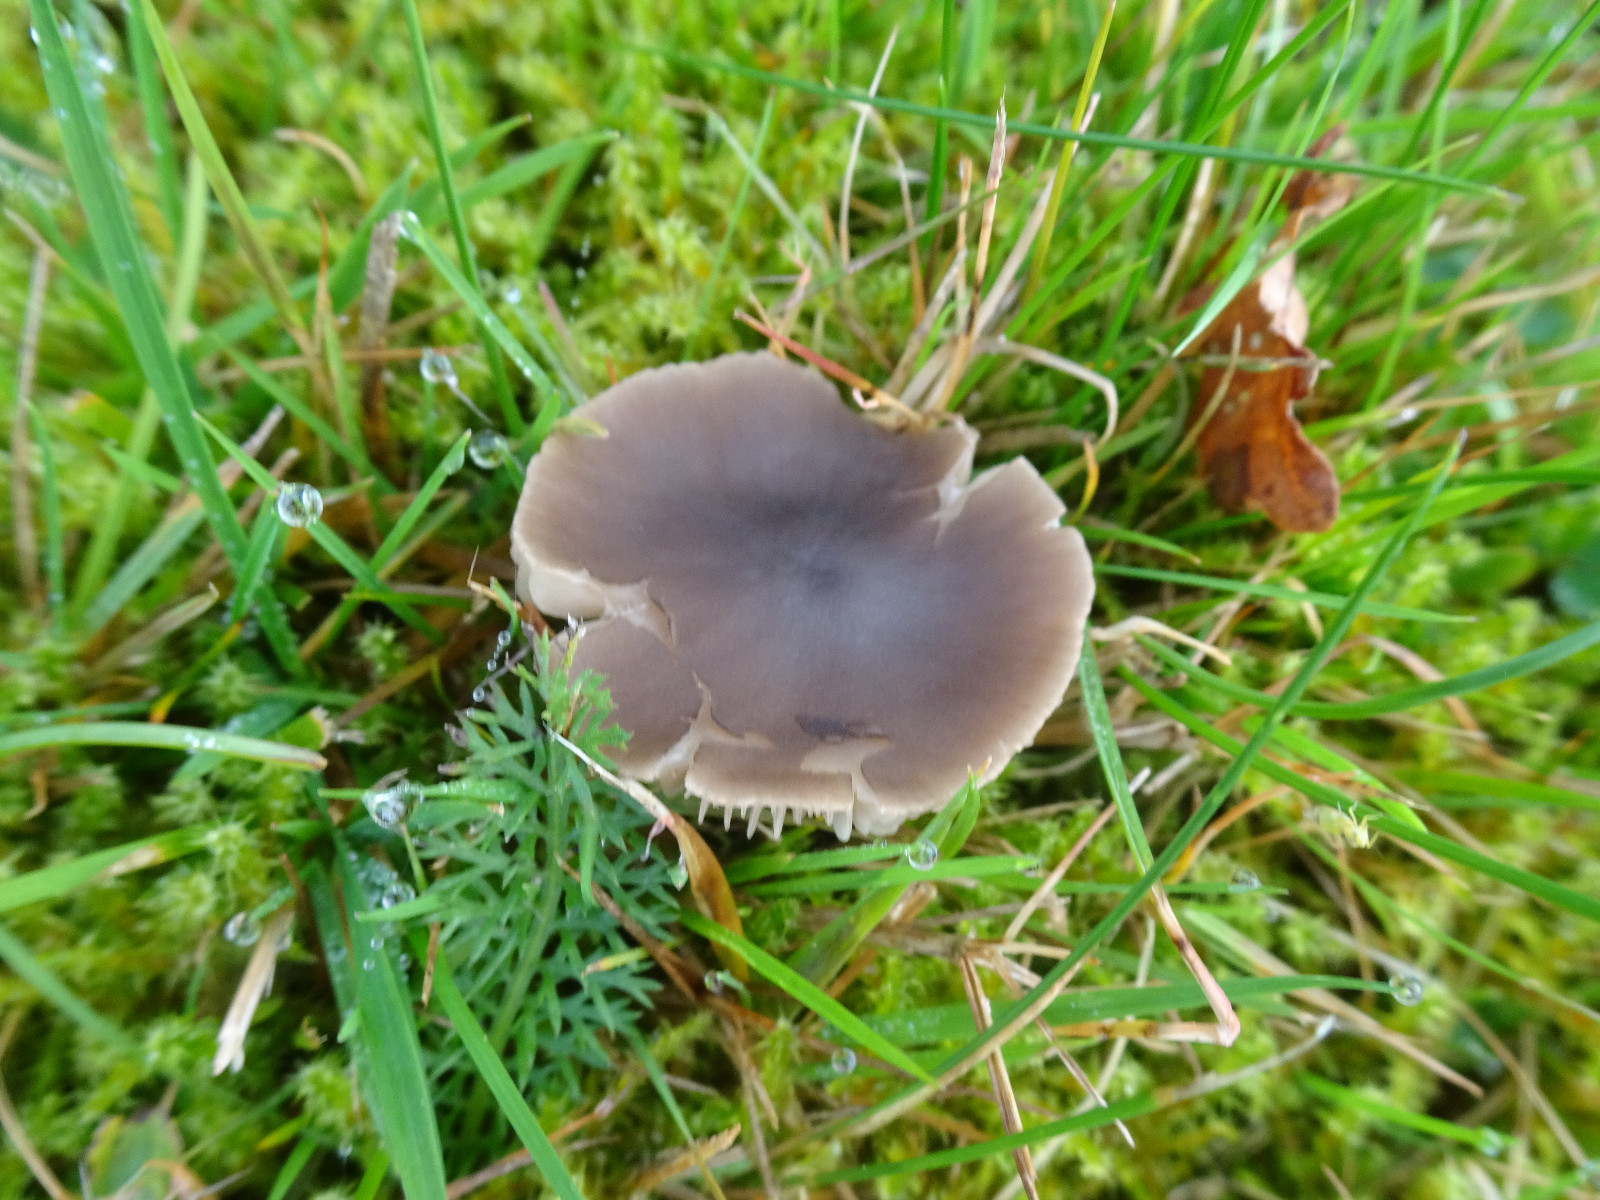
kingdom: Fungi
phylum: Basidiomycota
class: Agaricomycetes
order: Agaricales
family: Tricholomataceae
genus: Dermoloma
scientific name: Dermoloma cuneifolium
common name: eng-nonnehat
